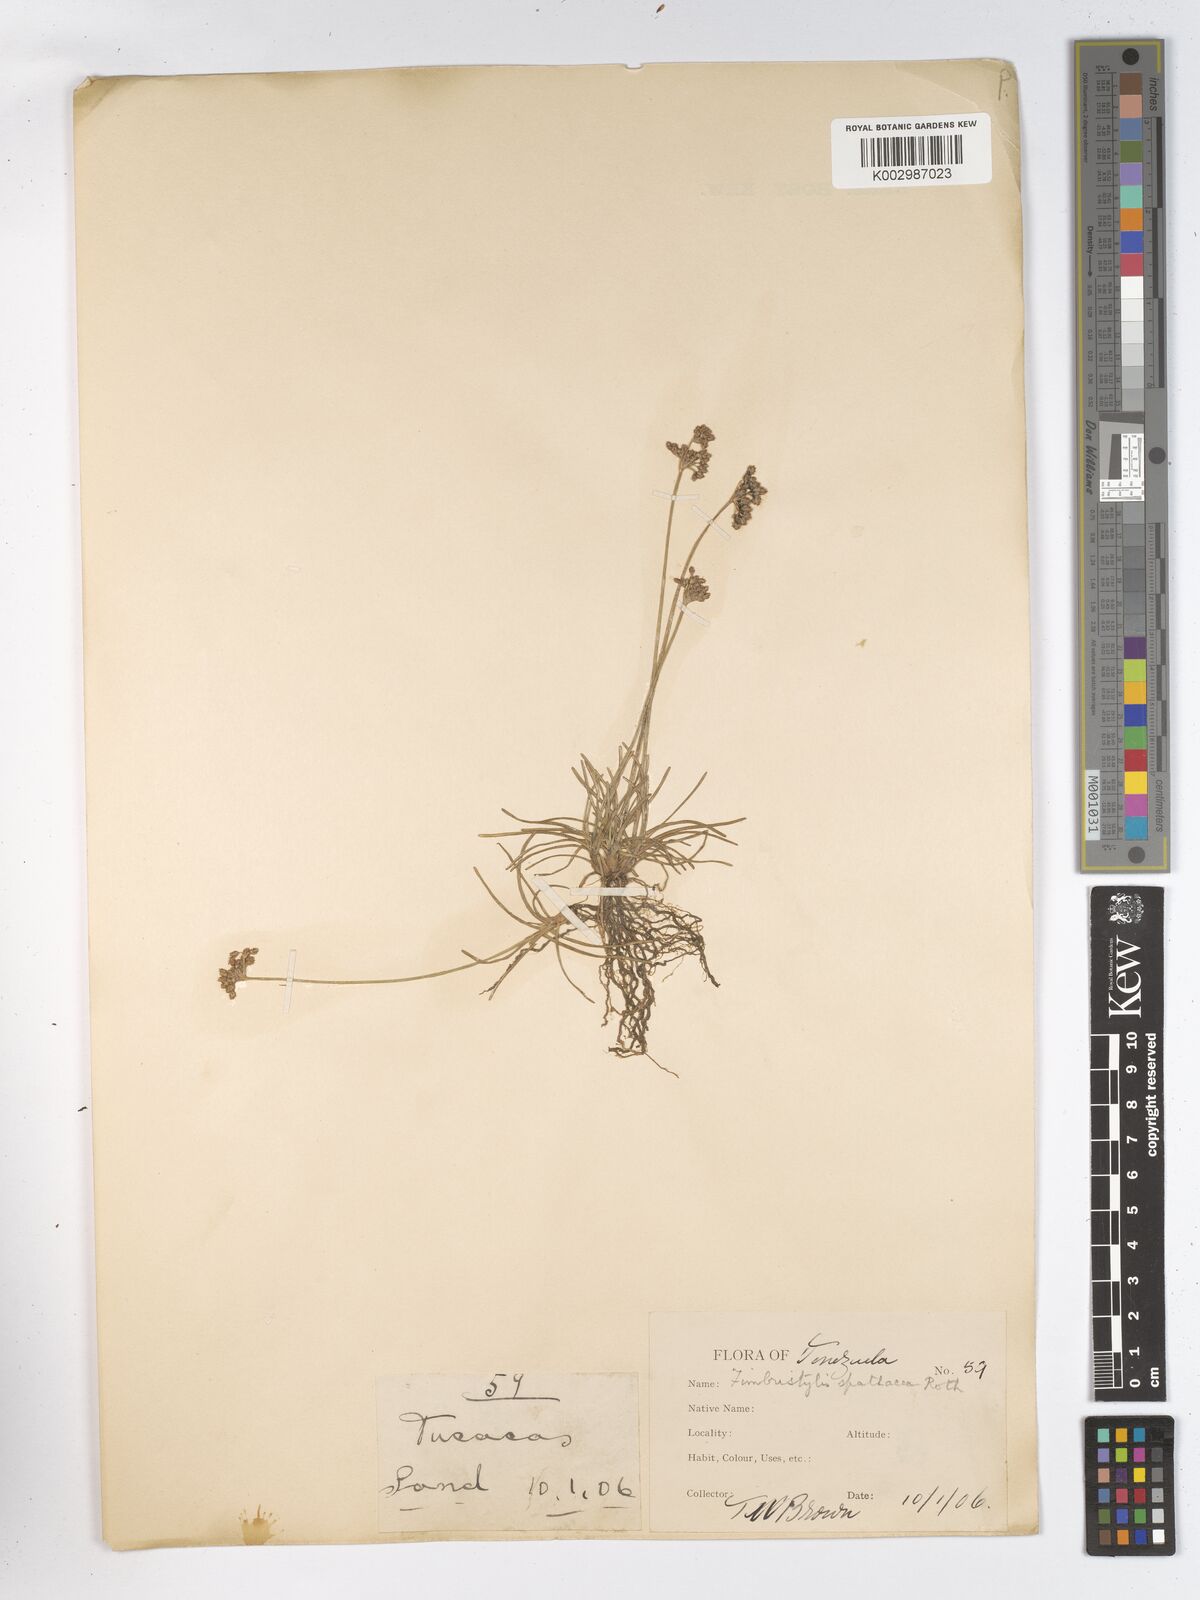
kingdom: Plantae
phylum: Tracheophyta
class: Liliopsida
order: Poales
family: Cyperaceae
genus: Fimbristylis
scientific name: Fimbristylis cymosa
